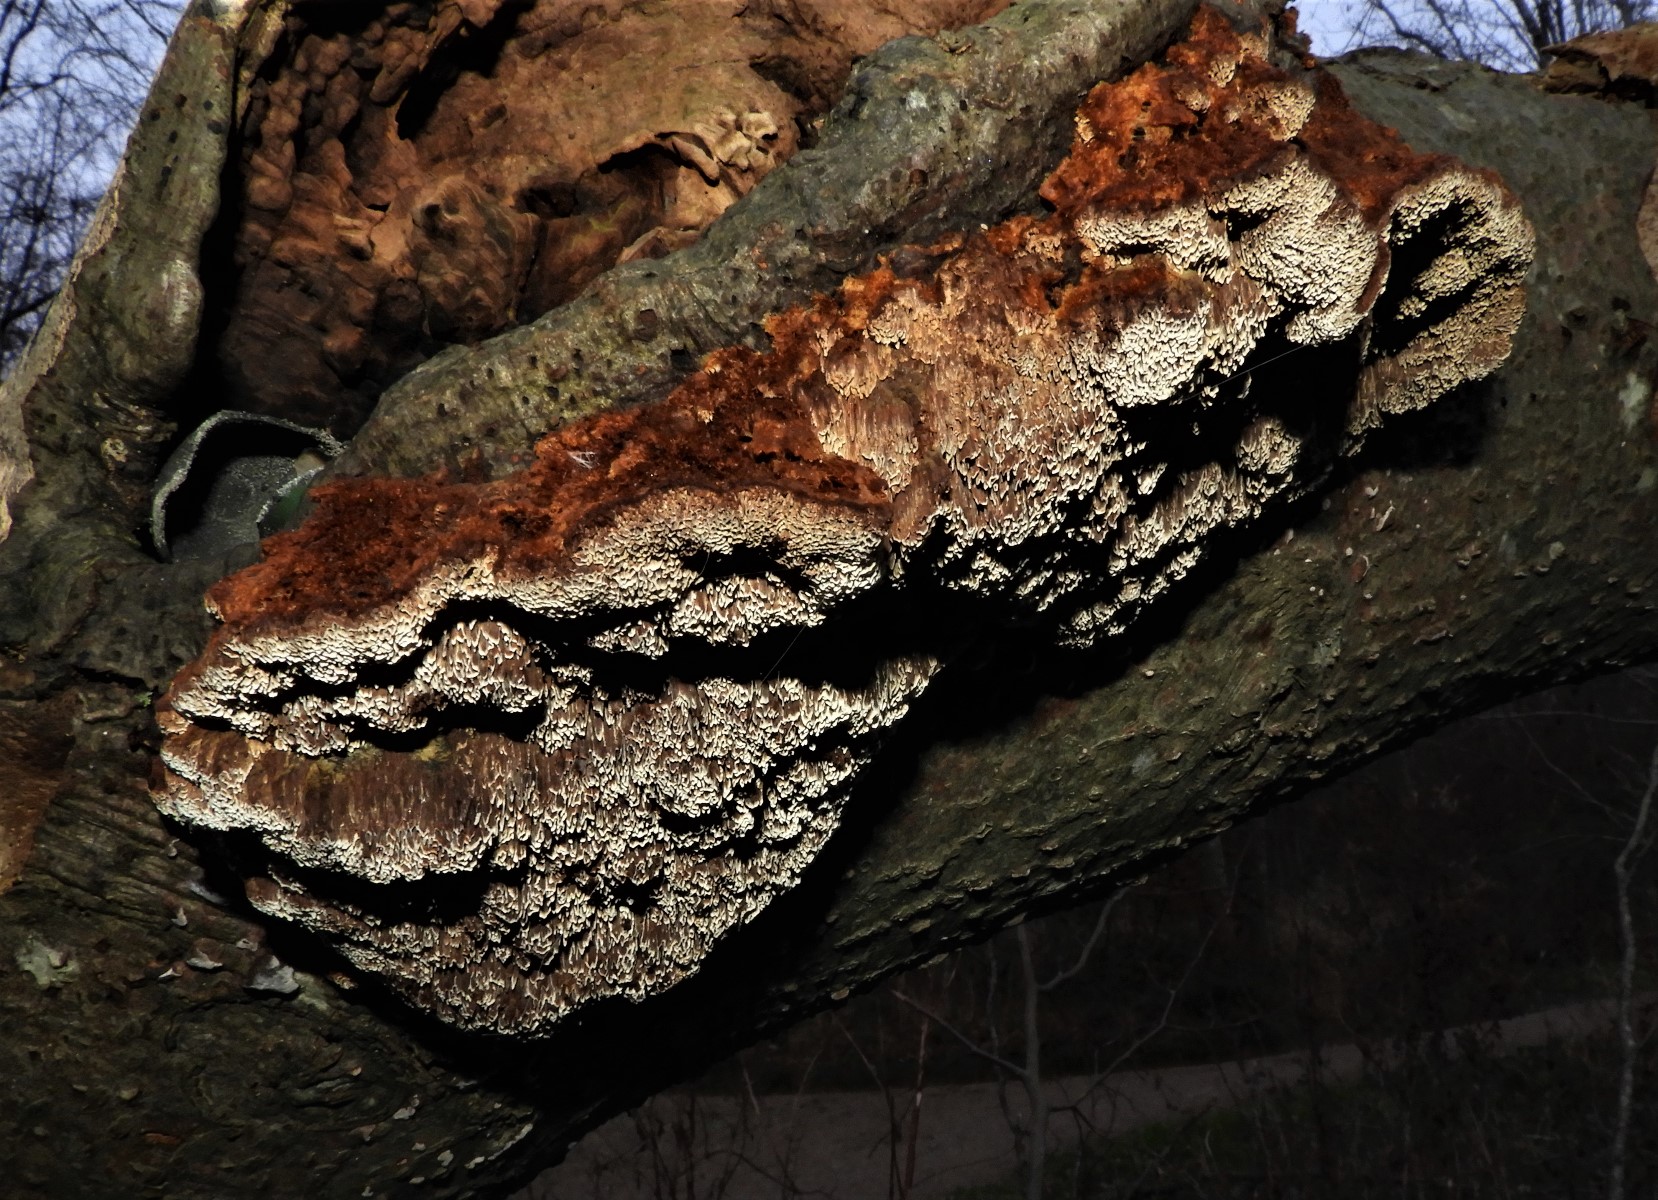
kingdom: Fungi
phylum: Basidiomycota
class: Agaricomycetes
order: Hymenochaetales
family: Hymenochaetaceae
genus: Mensularia
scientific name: Mensularia nodulosa
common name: bøge-spejlporesvamp
